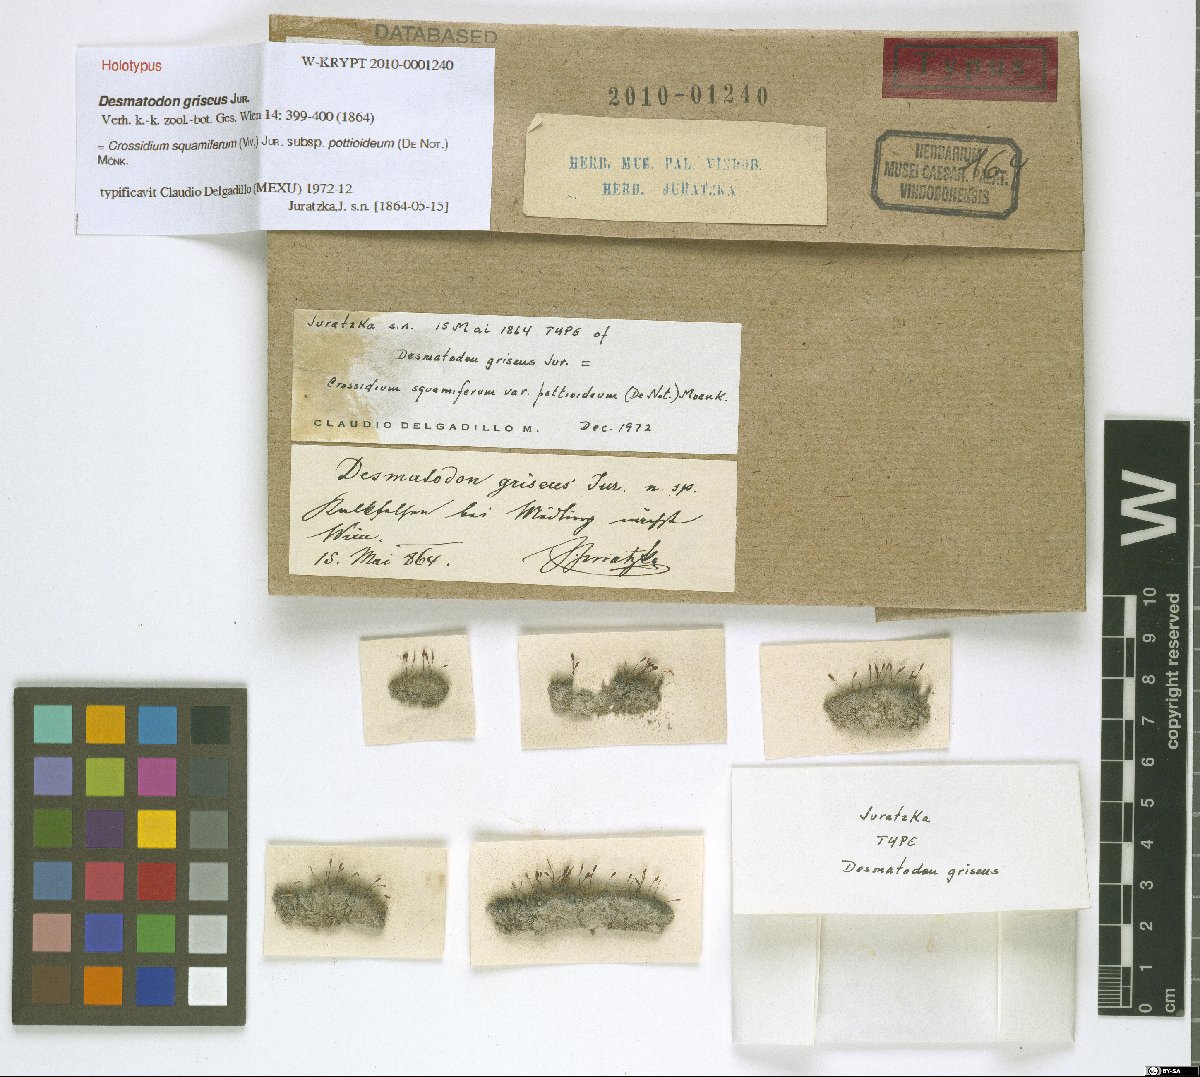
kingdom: Plantae
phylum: Bryophyta
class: Bryopsida
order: Pottiales
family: Pottiaceae
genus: Crossidium
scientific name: Crossidium squamiferum
